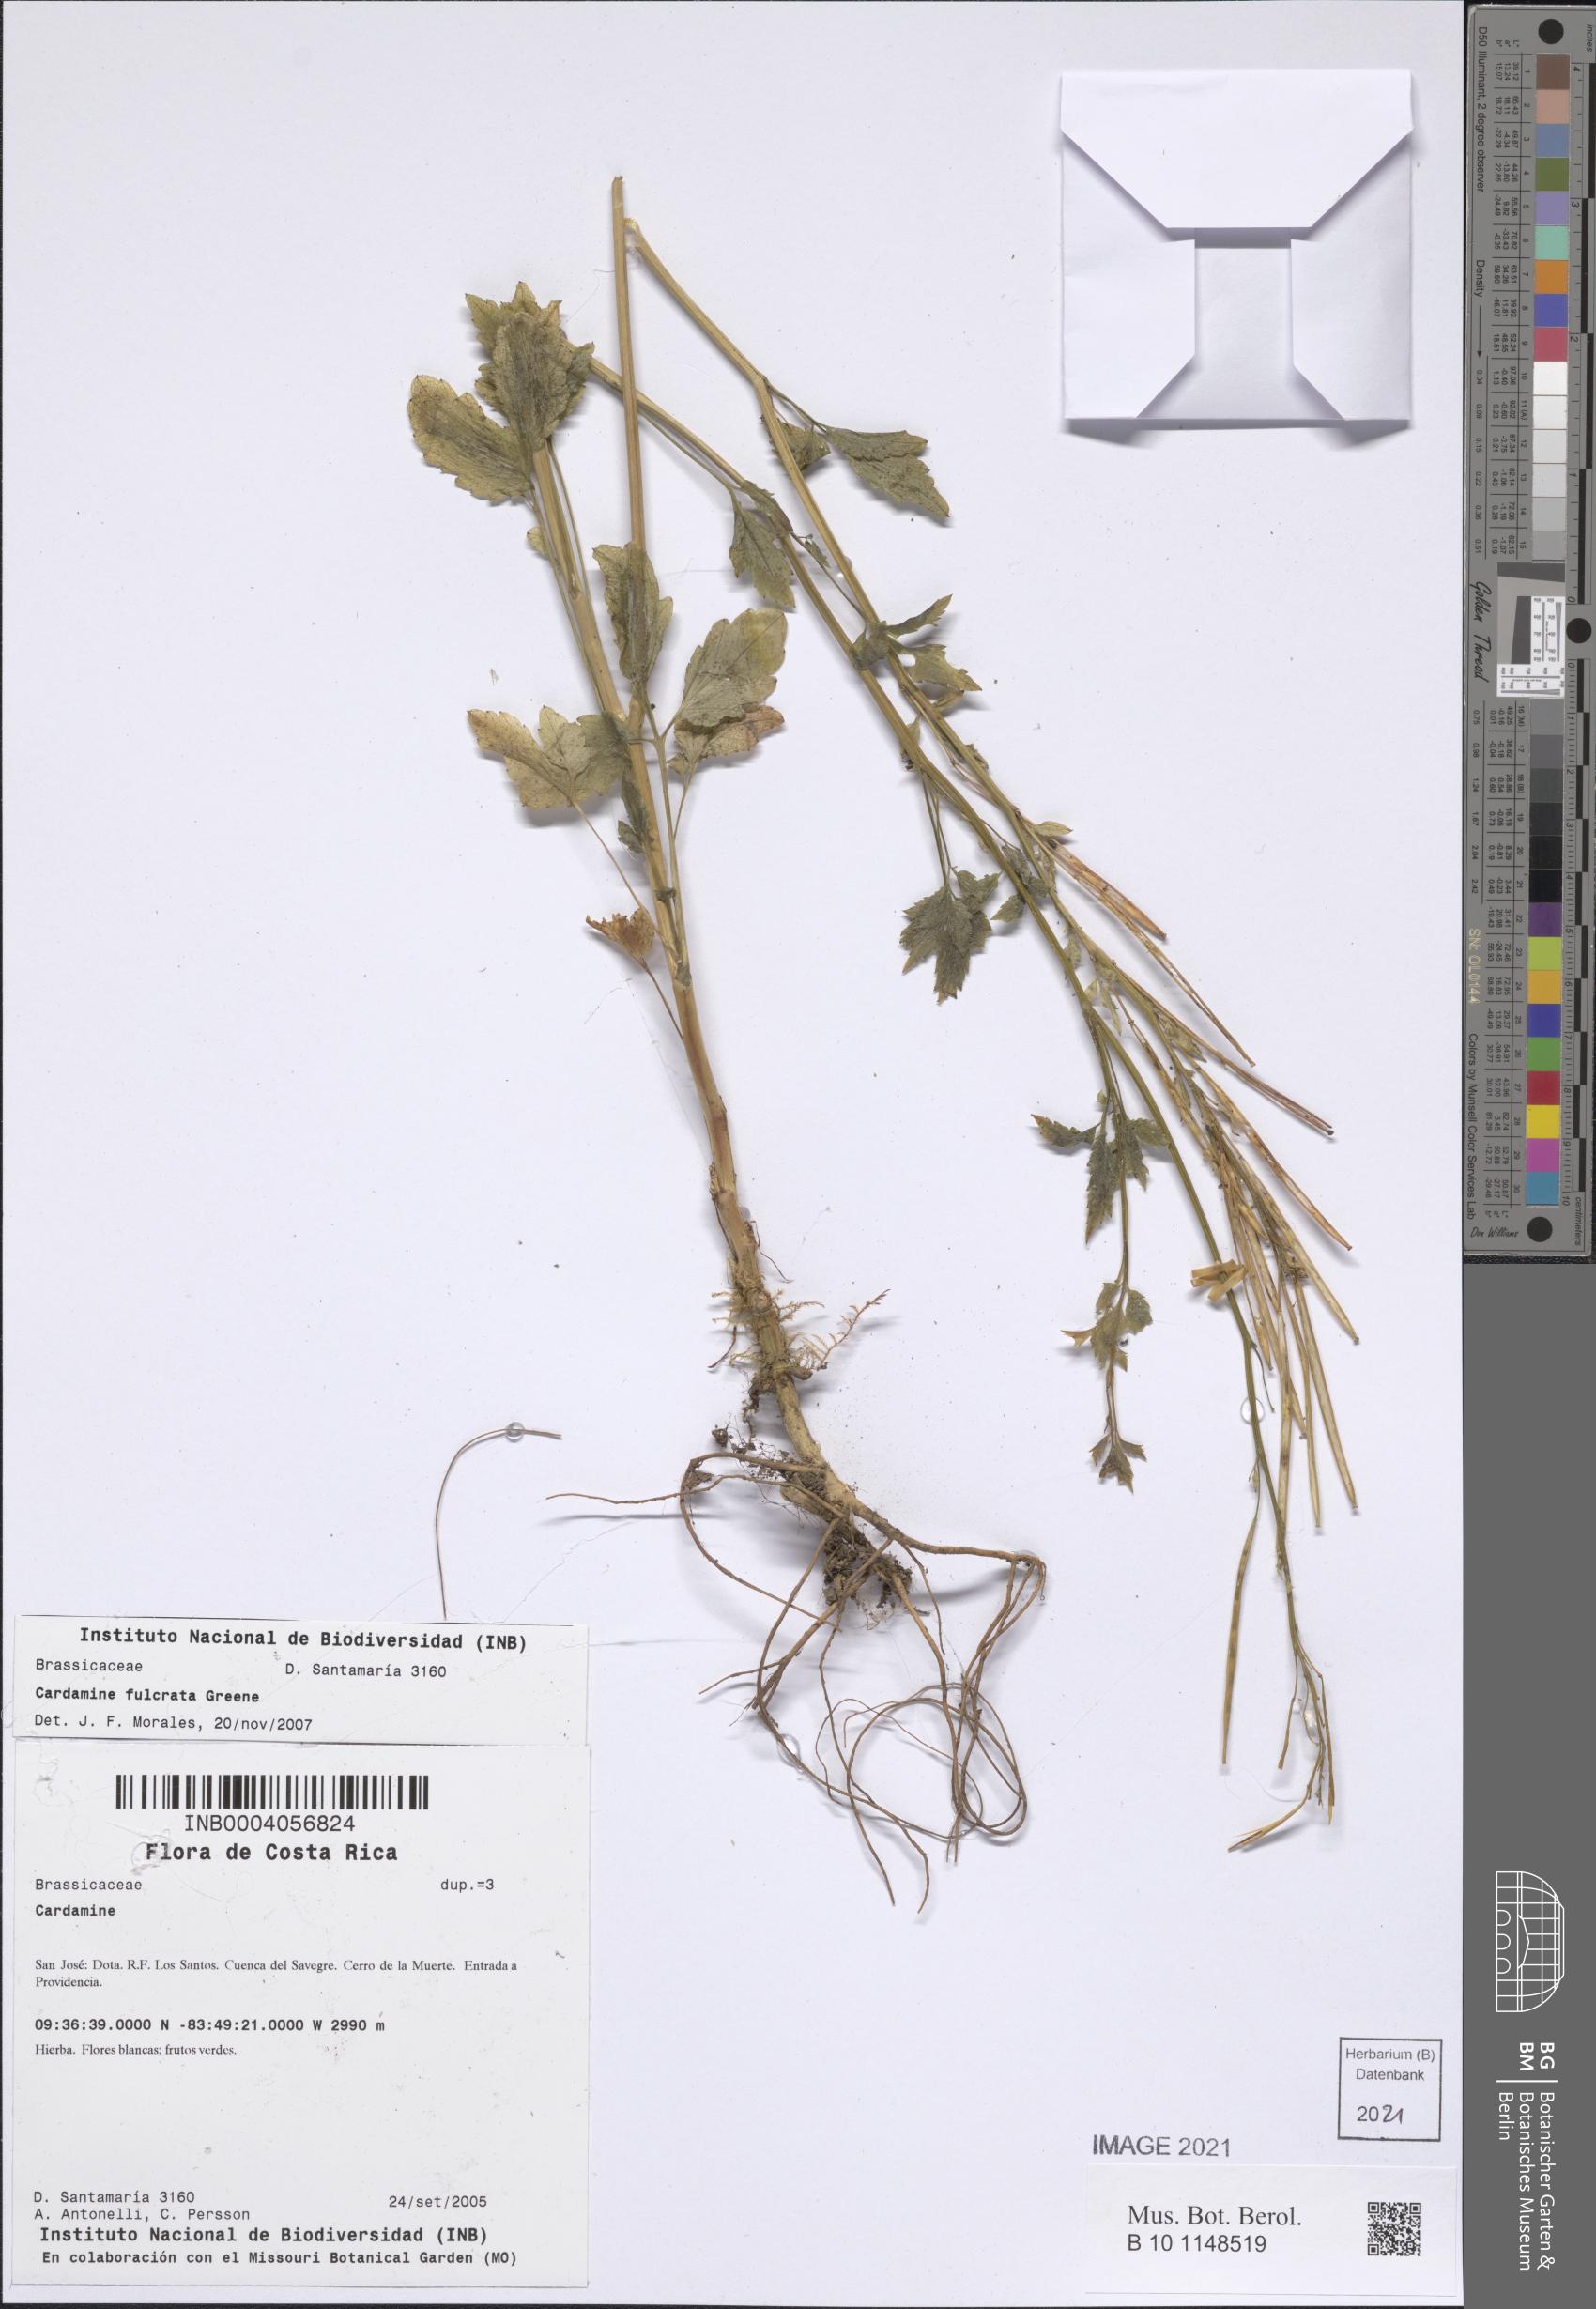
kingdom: Plantae
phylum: Tracheophyta
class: Magnoliopsida
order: Brassicales
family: Brassicaceae
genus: Cardamine
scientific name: Cardamine fulcrata
